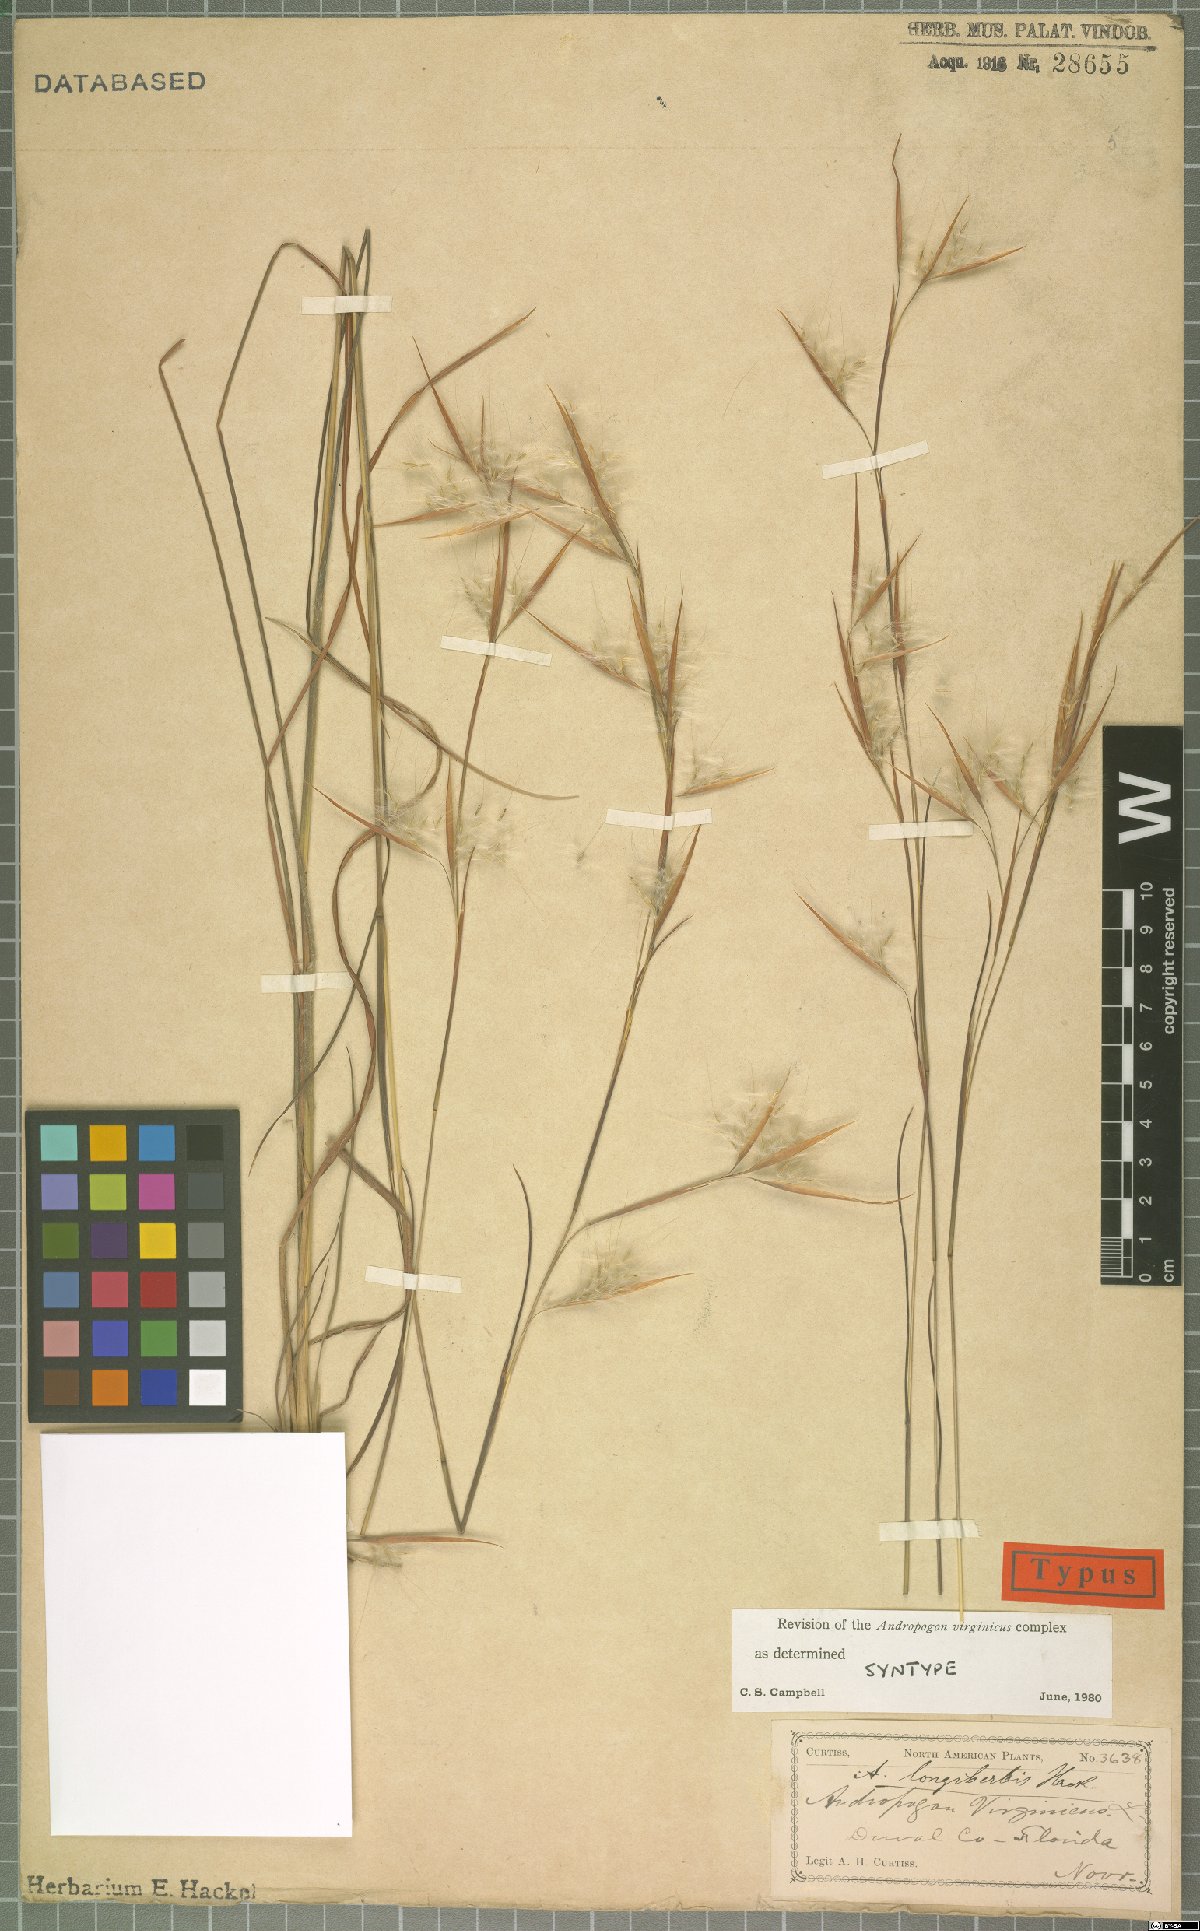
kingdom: Plantae
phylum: Tracheophyta
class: Liliopsida
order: Poales
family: Poaceae
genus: Andropogon
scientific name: Andropogon longiberbis
